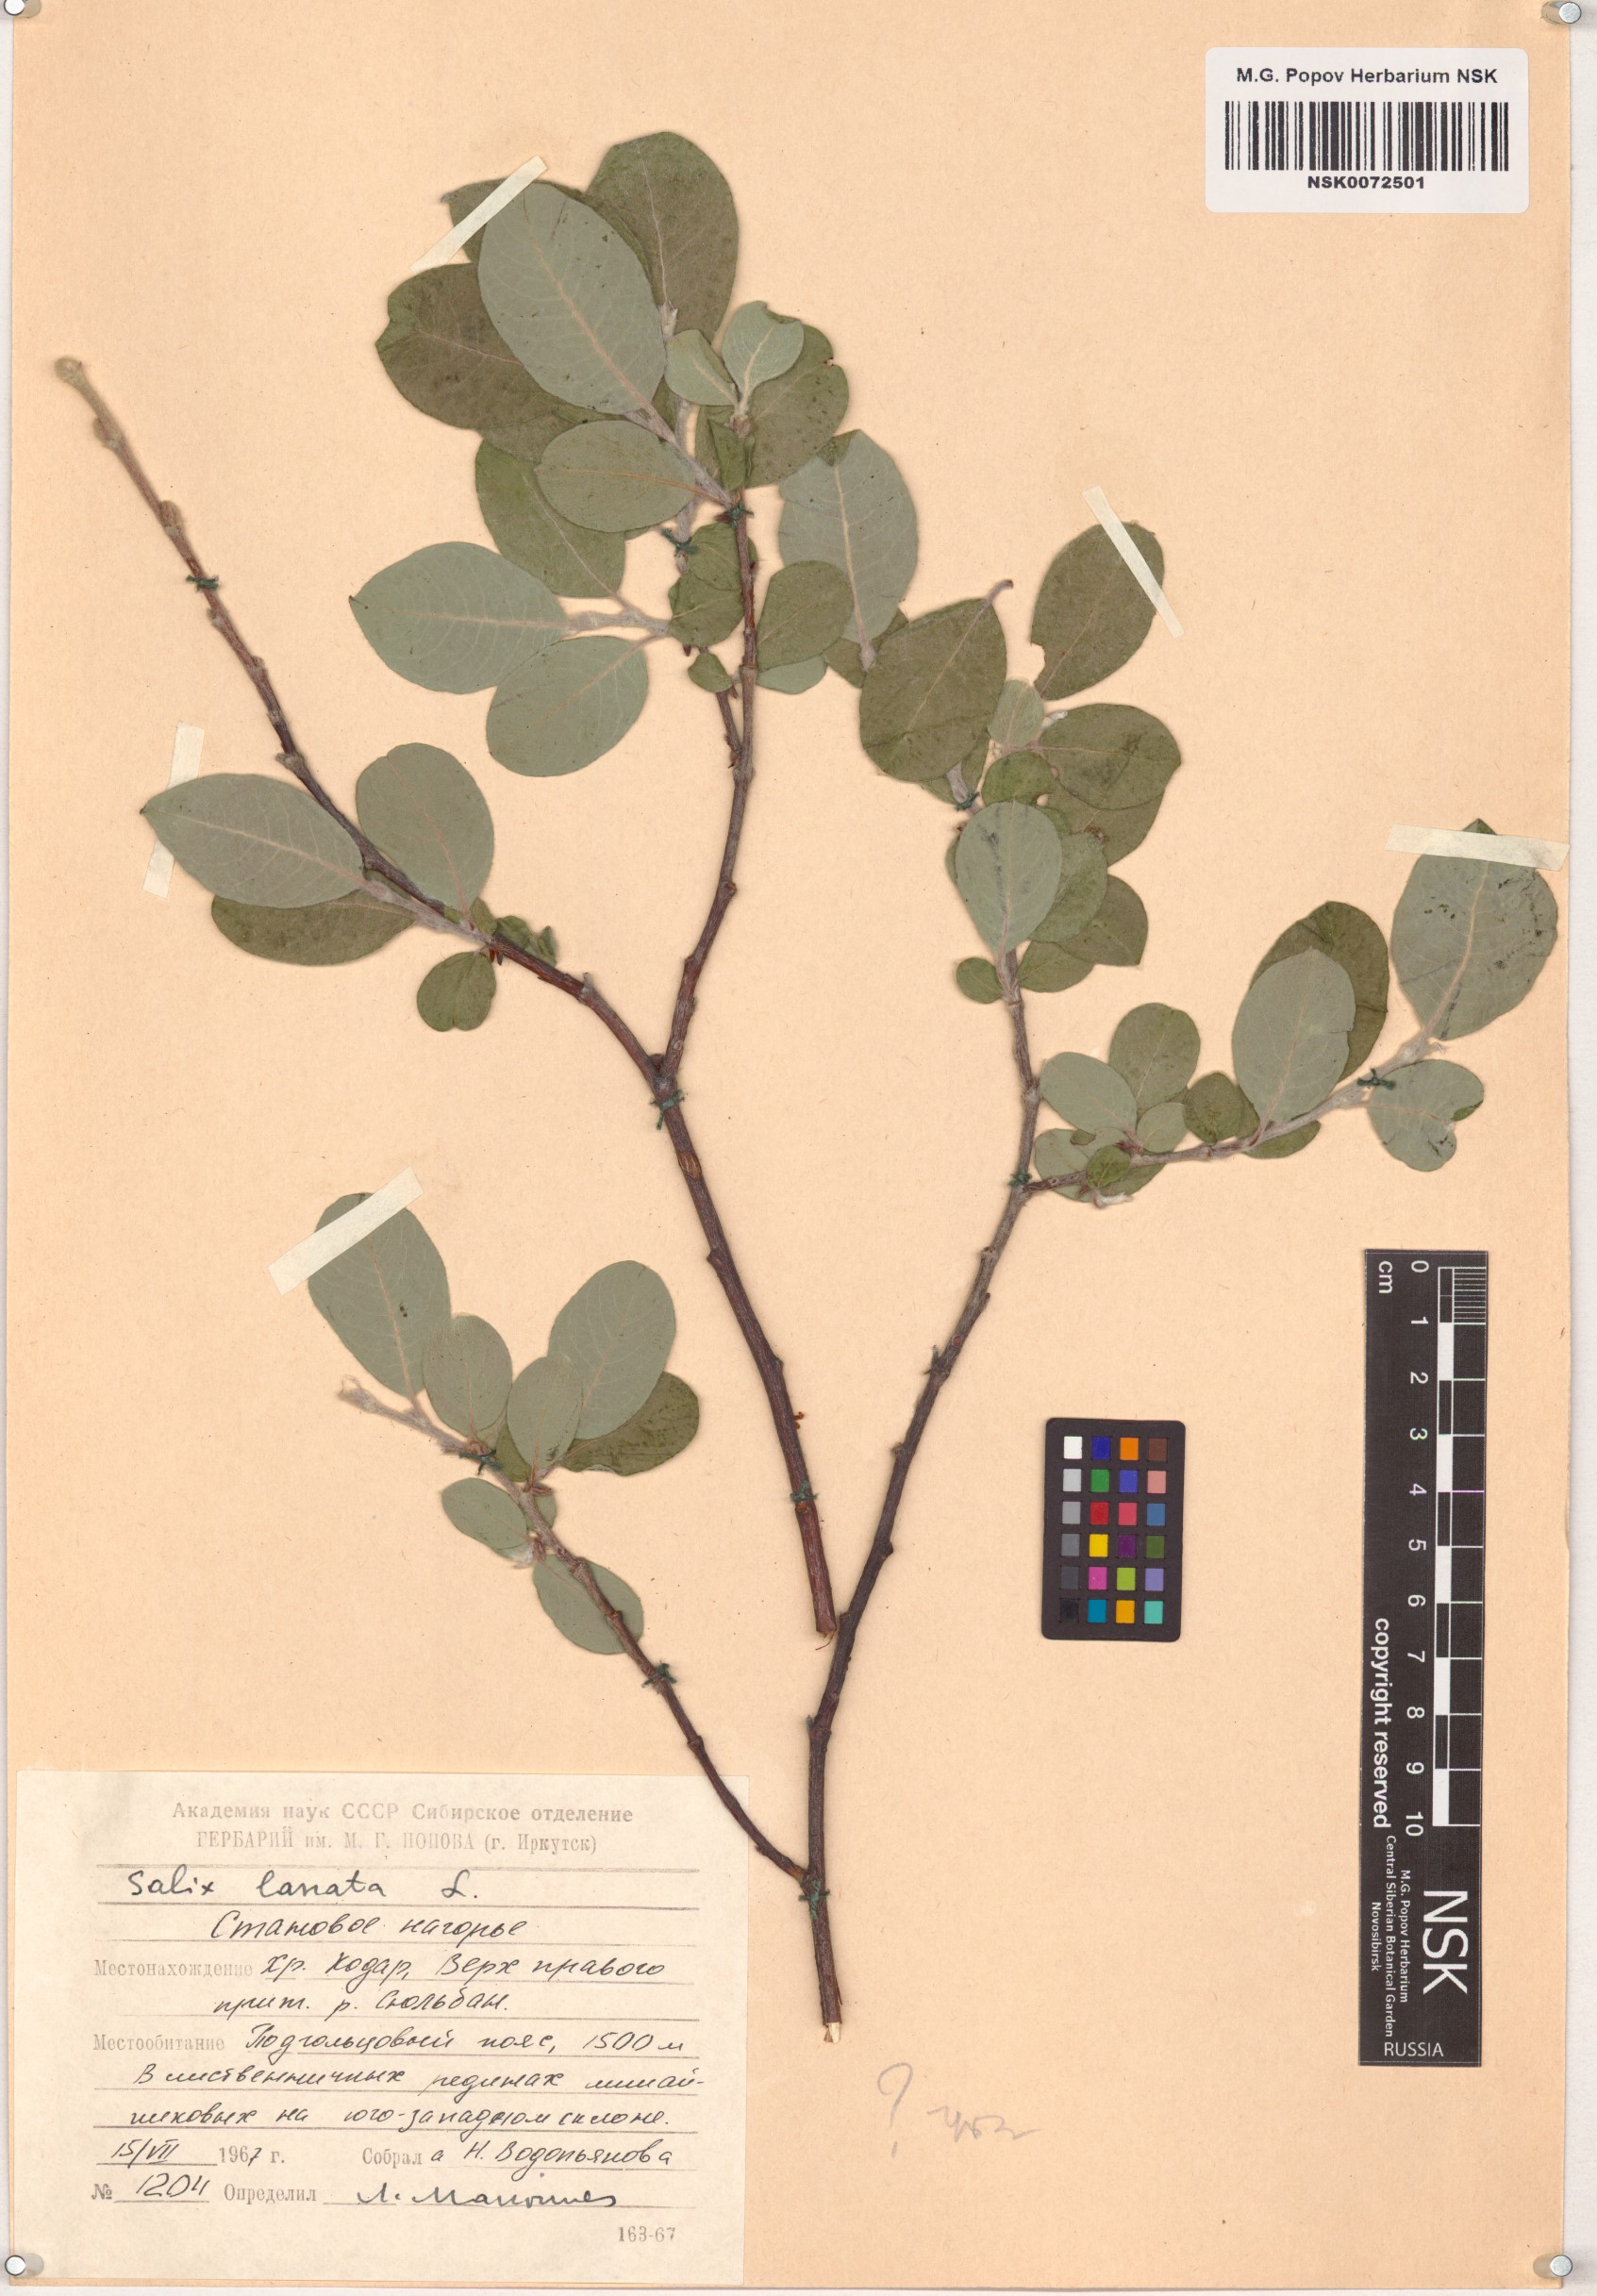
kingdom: Plantae
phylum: Tracheophyta
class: Magnoliopsida
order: Malpighiales
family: Salicaceae
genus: Salix
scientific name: Salix lanata
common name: Woolly willow
